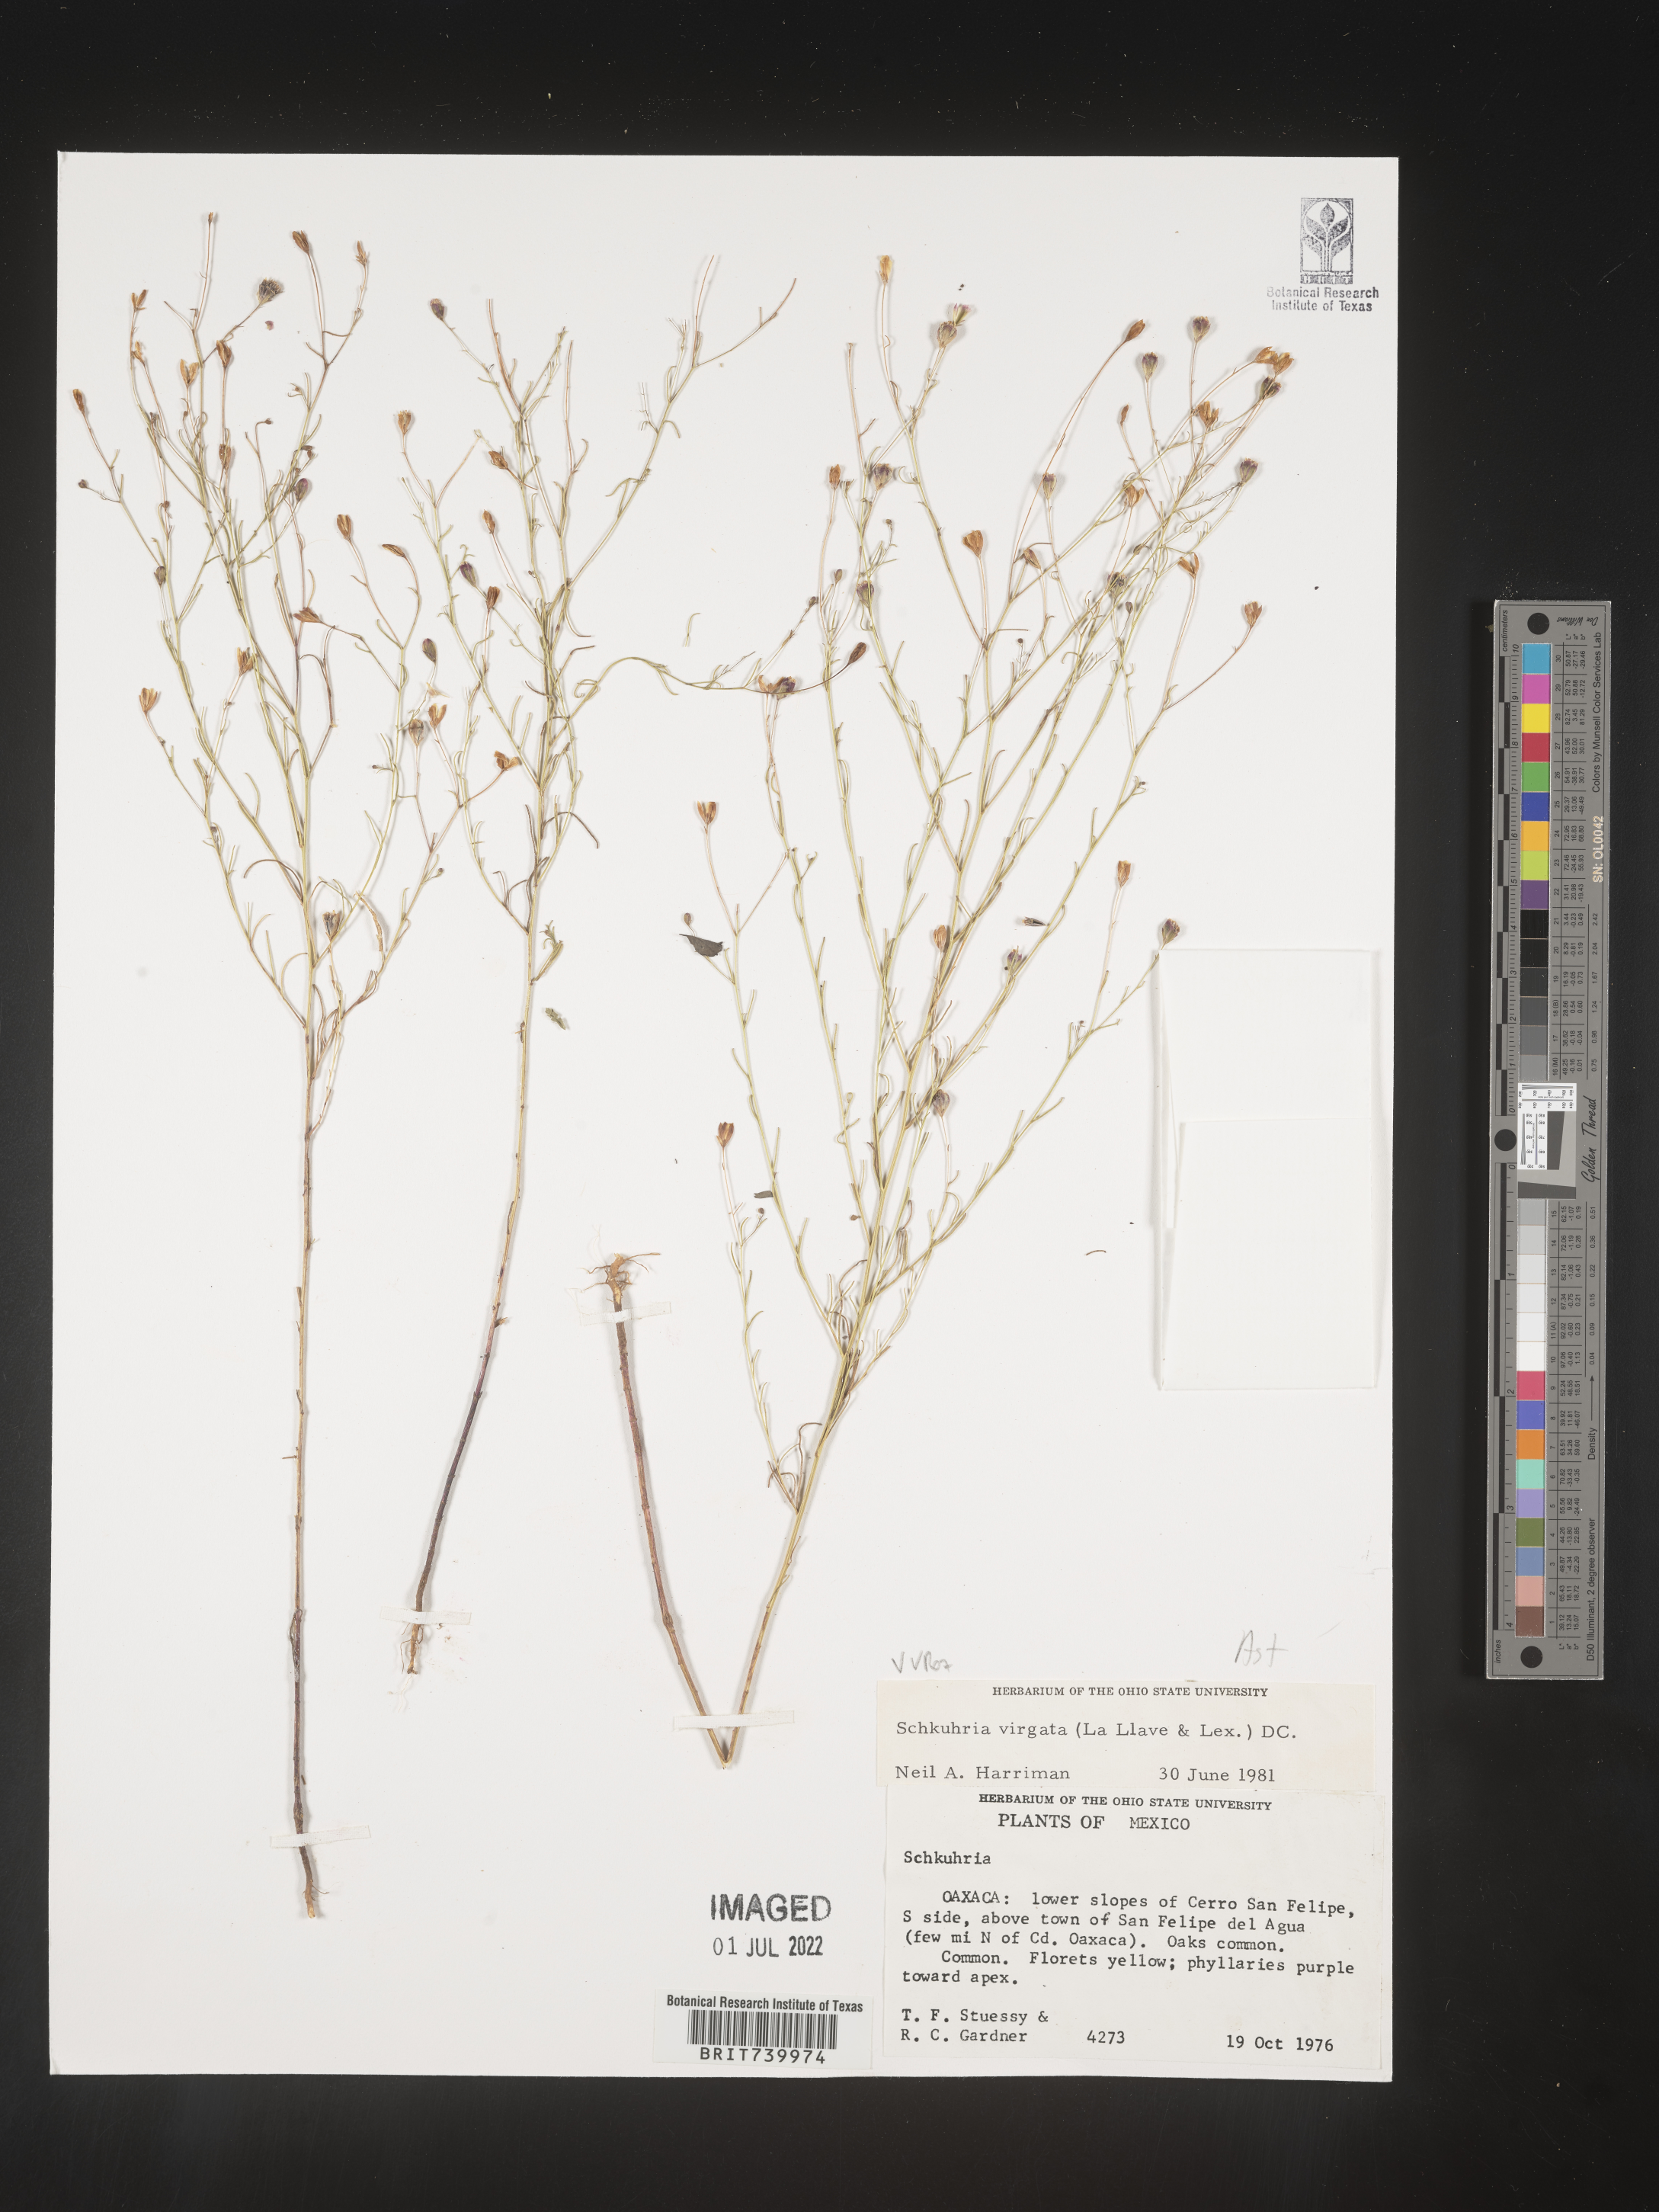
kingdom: Plantae
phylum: Tracheophyta
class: Magnoliopsida
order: Asterales
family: Asteraceae
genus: Schkuhria
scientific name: Schkuhria
